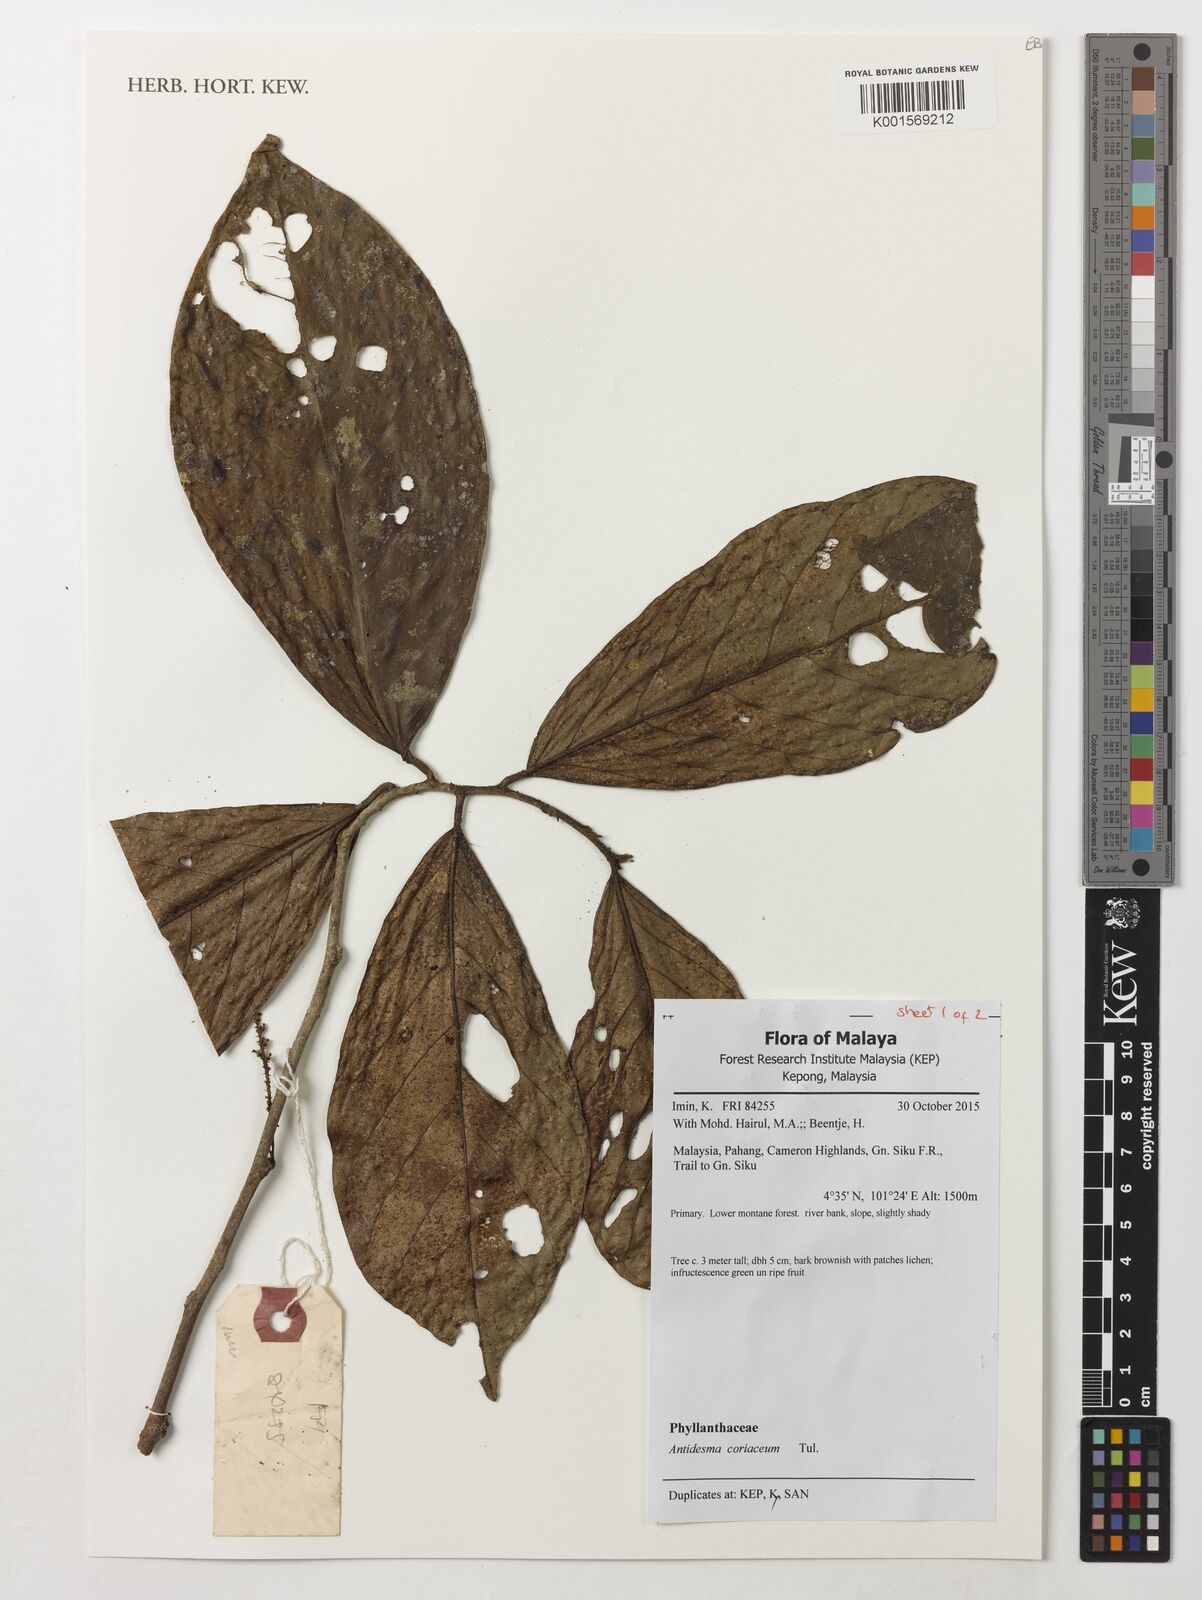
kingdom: Plantae
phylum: Tracheophyta
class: Magnoliopsida
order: Malpighiales
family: Phyllanthaceae
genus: Antidesma
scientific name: Antidesma coriaceum
